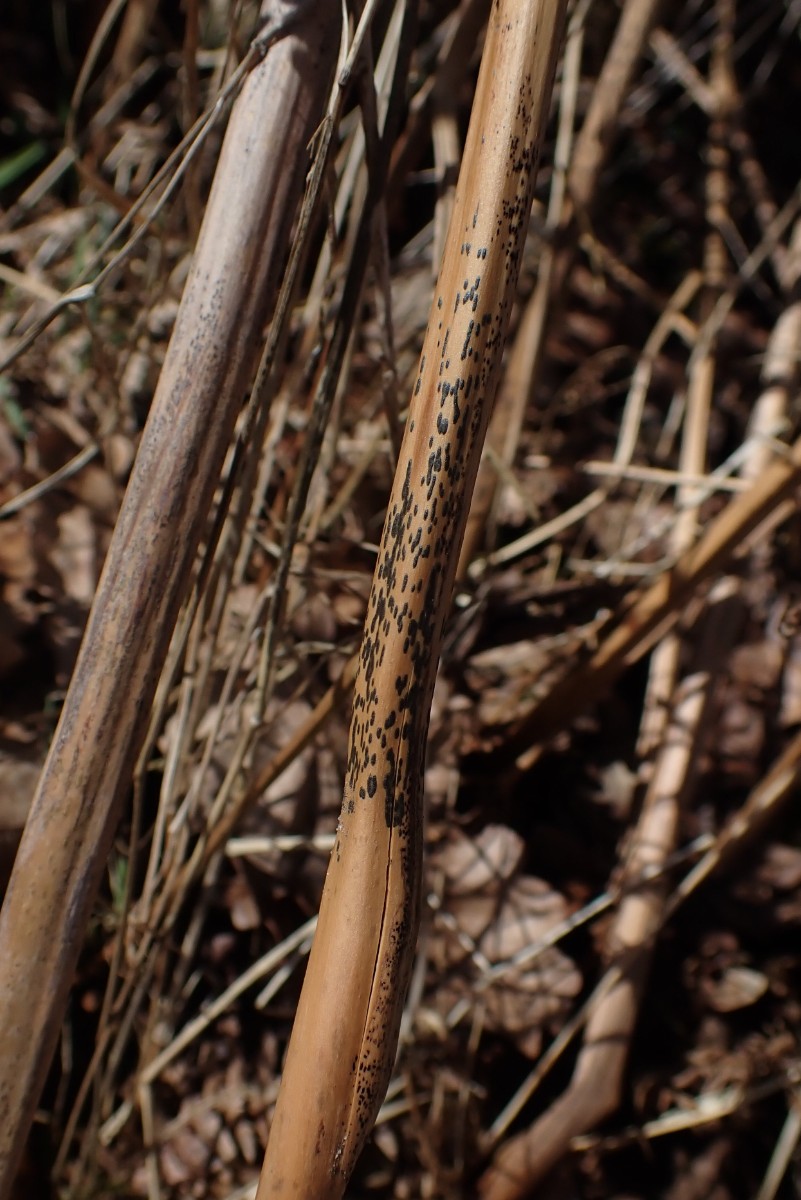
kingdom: Fungi
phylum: Ascomycota
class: Dothideomycetes
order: Pleosporales
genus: Rhopographus
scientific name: Rhopographus filicinus
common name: Bracken map
